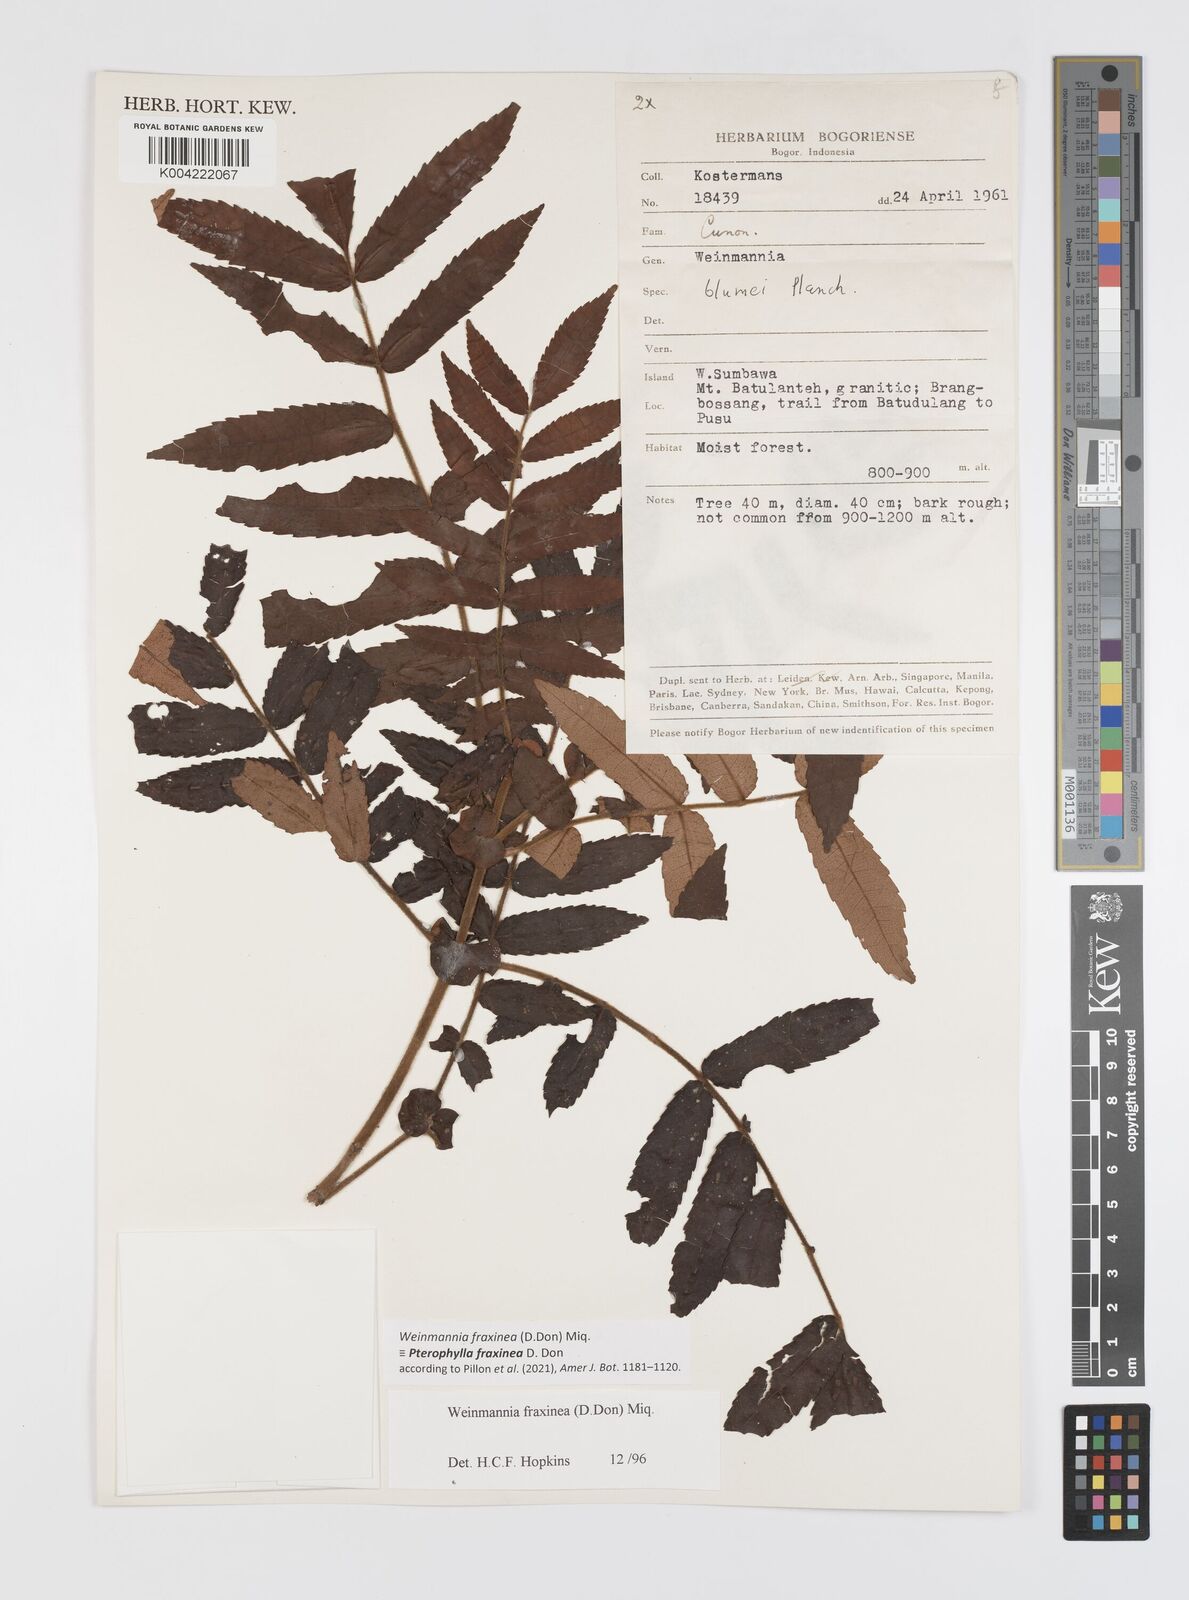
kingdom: Plantae
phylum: Tracheophyta
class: Magnoliopsida
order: Oxalidales
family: Cunoniaceae
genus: Pterophylla
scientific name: Pterophylla fraxinea
